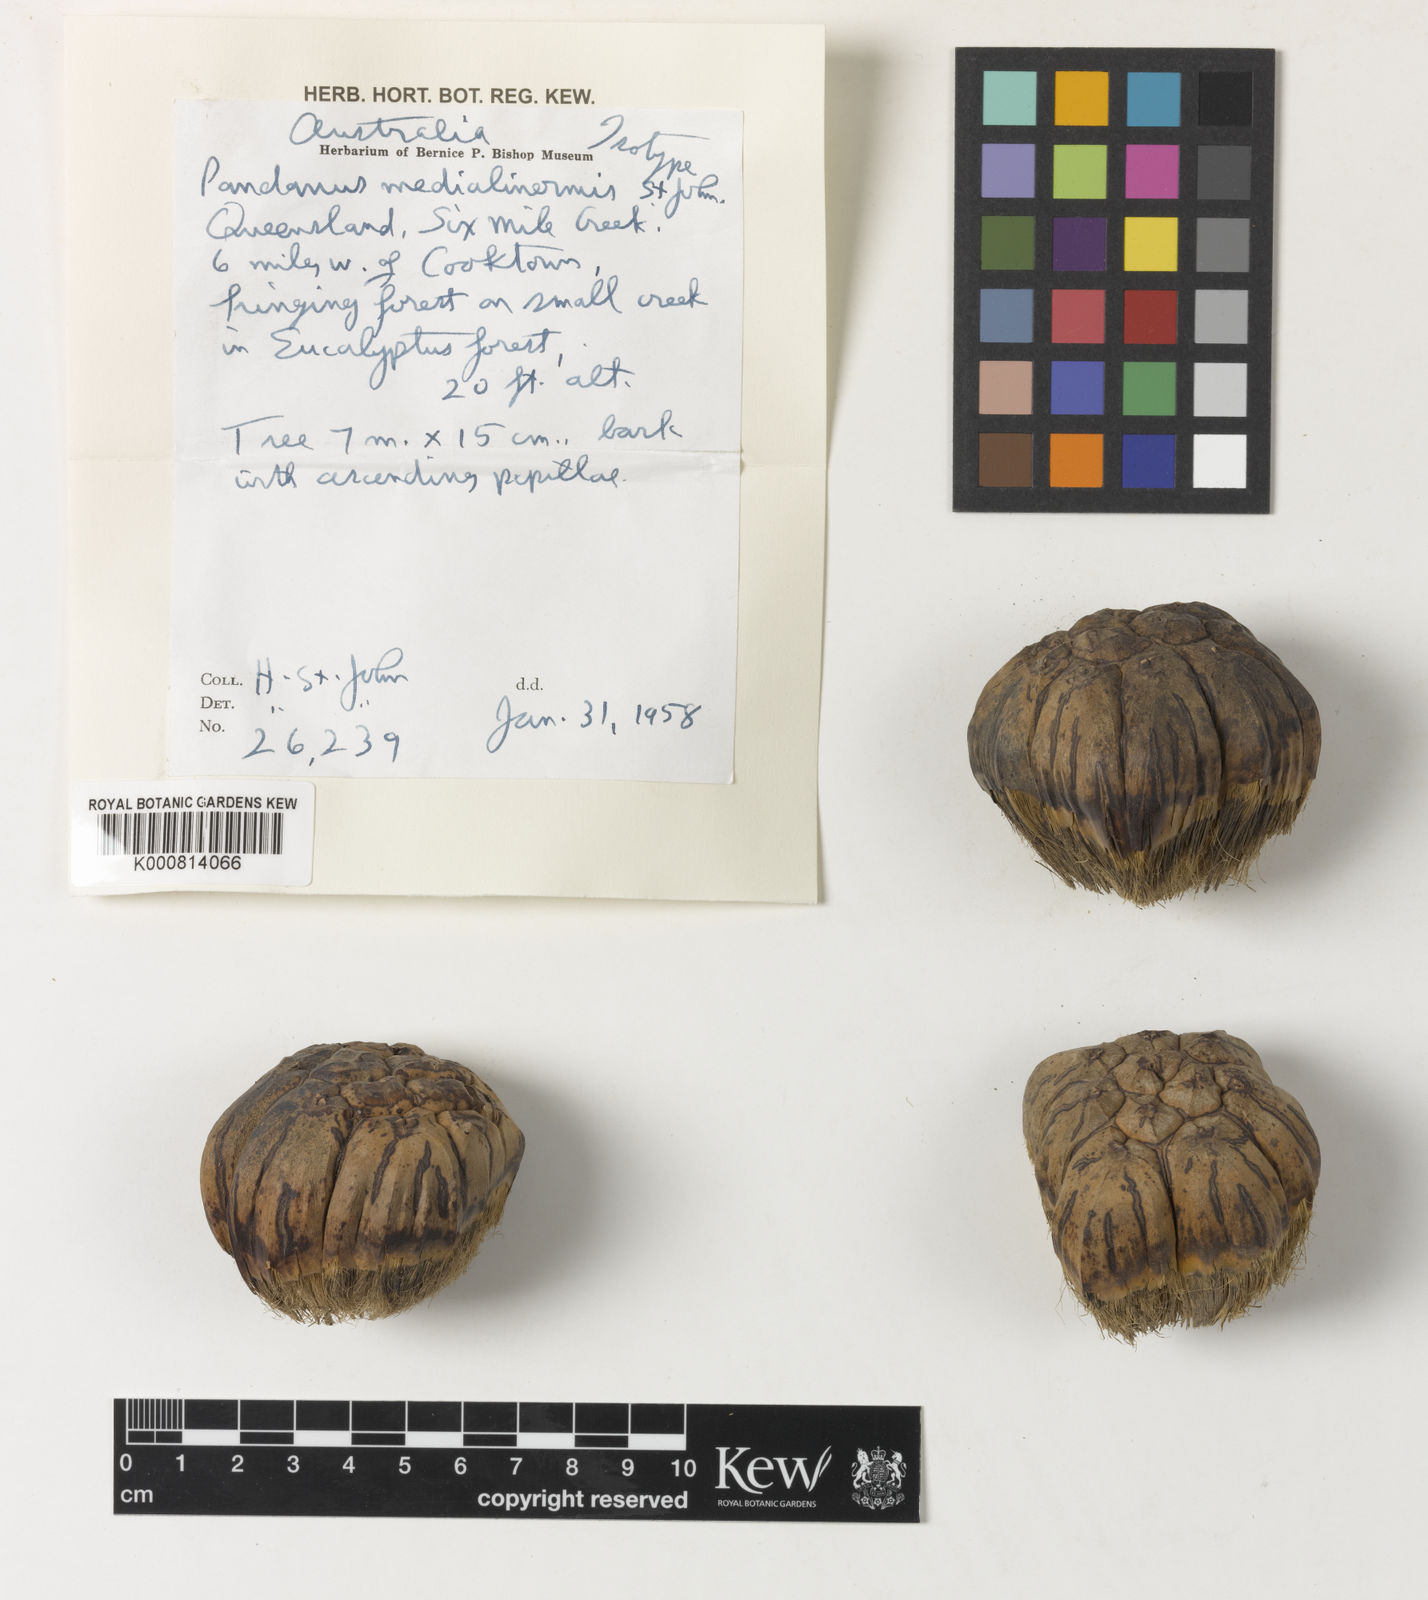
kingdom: Plantae
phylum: Tracheophyta
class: Liliopsida
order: Pandanales
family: Pandanaceae
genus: Pandanus
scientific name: Pandanus spiralis
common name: Screw-pine
